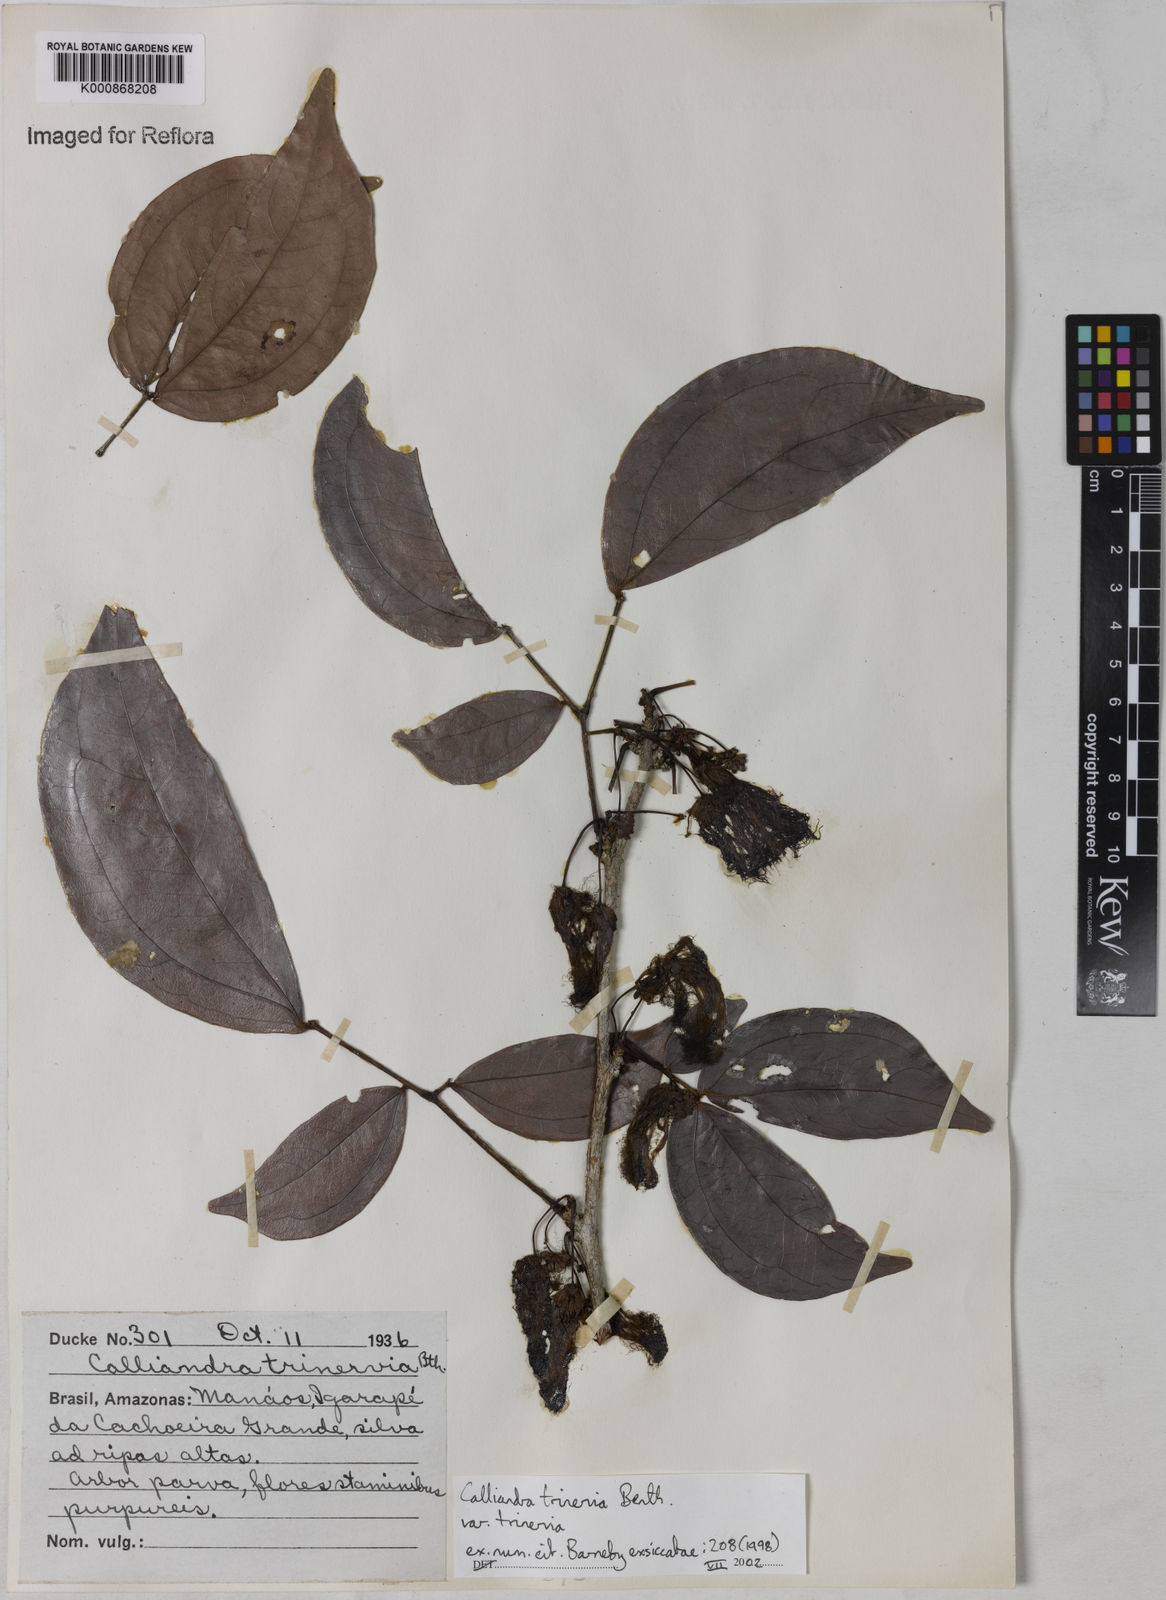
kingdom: Plantae
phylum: Tracheophyta
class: Magnoliopsida
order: Fabales
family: Fabaceae
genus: Calliandra
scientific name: Calliandra trinervia
